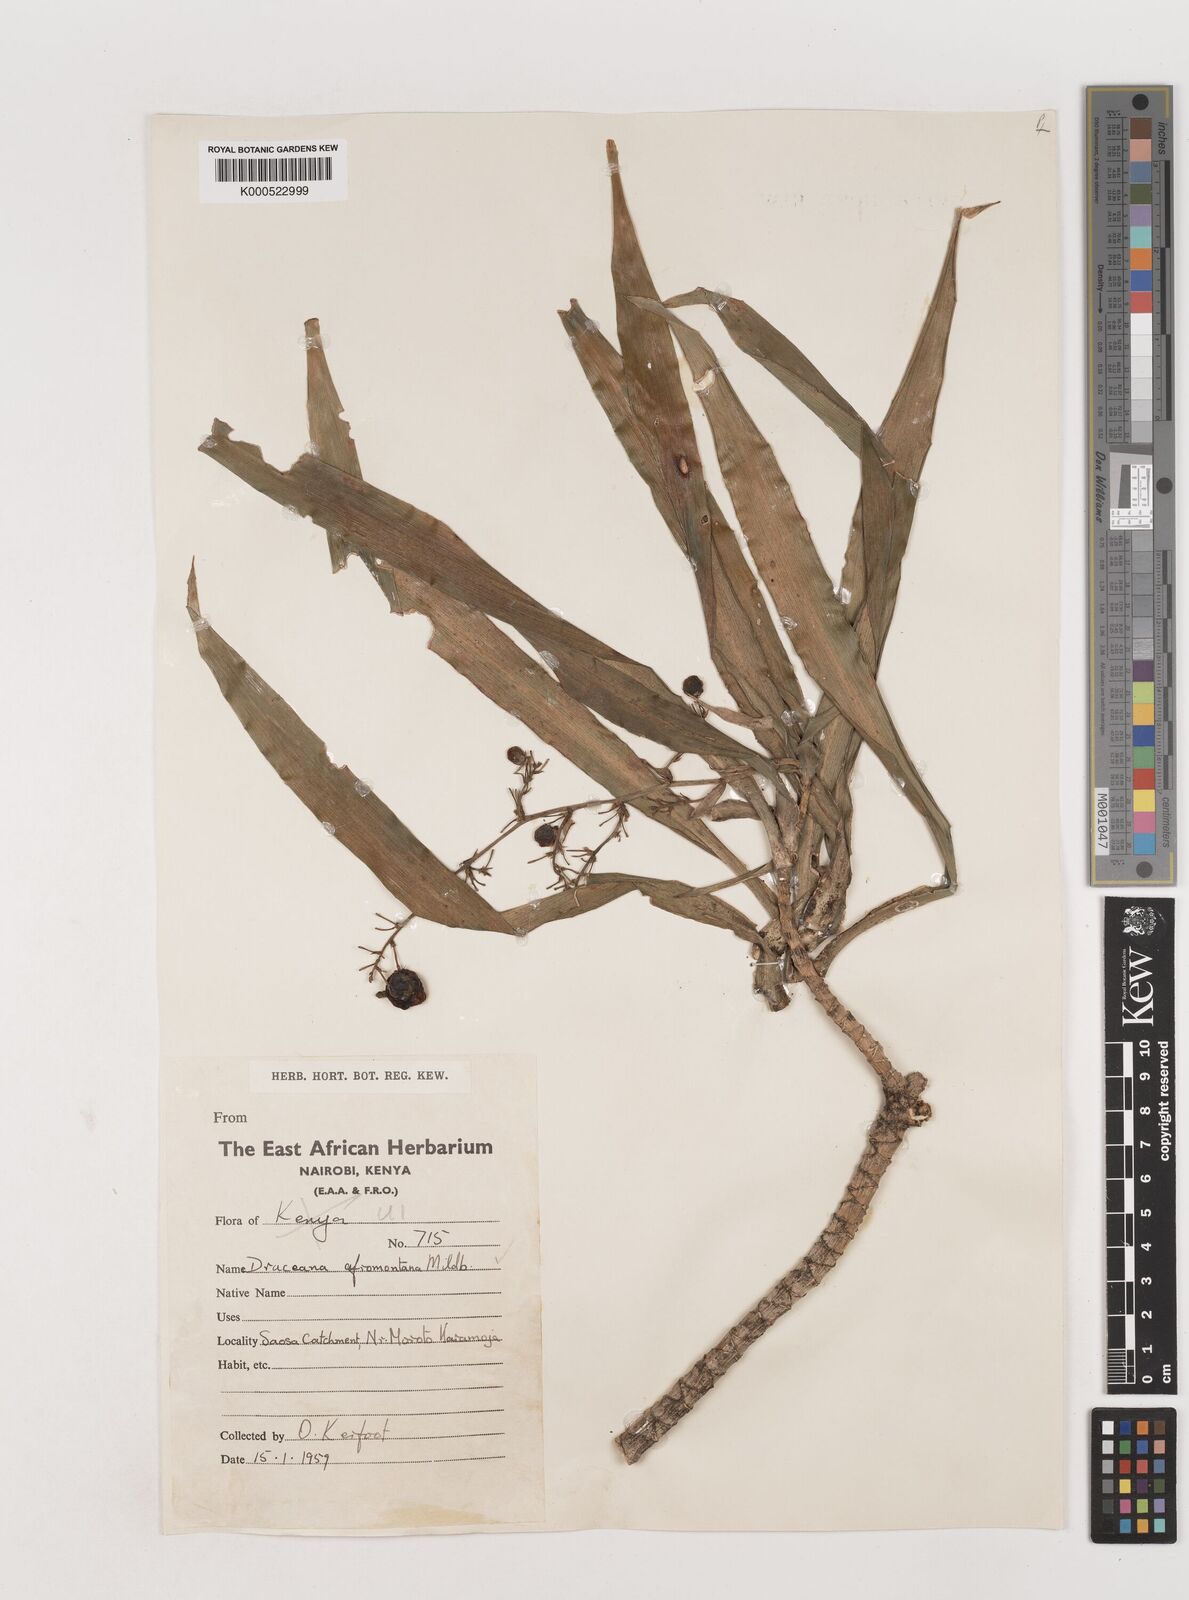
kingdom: Plantae
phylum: Tracheophyta
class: Liliopsida
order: Asparagales
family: Asparagaceae
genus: Dracaena
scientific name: Dracaena afromontana
